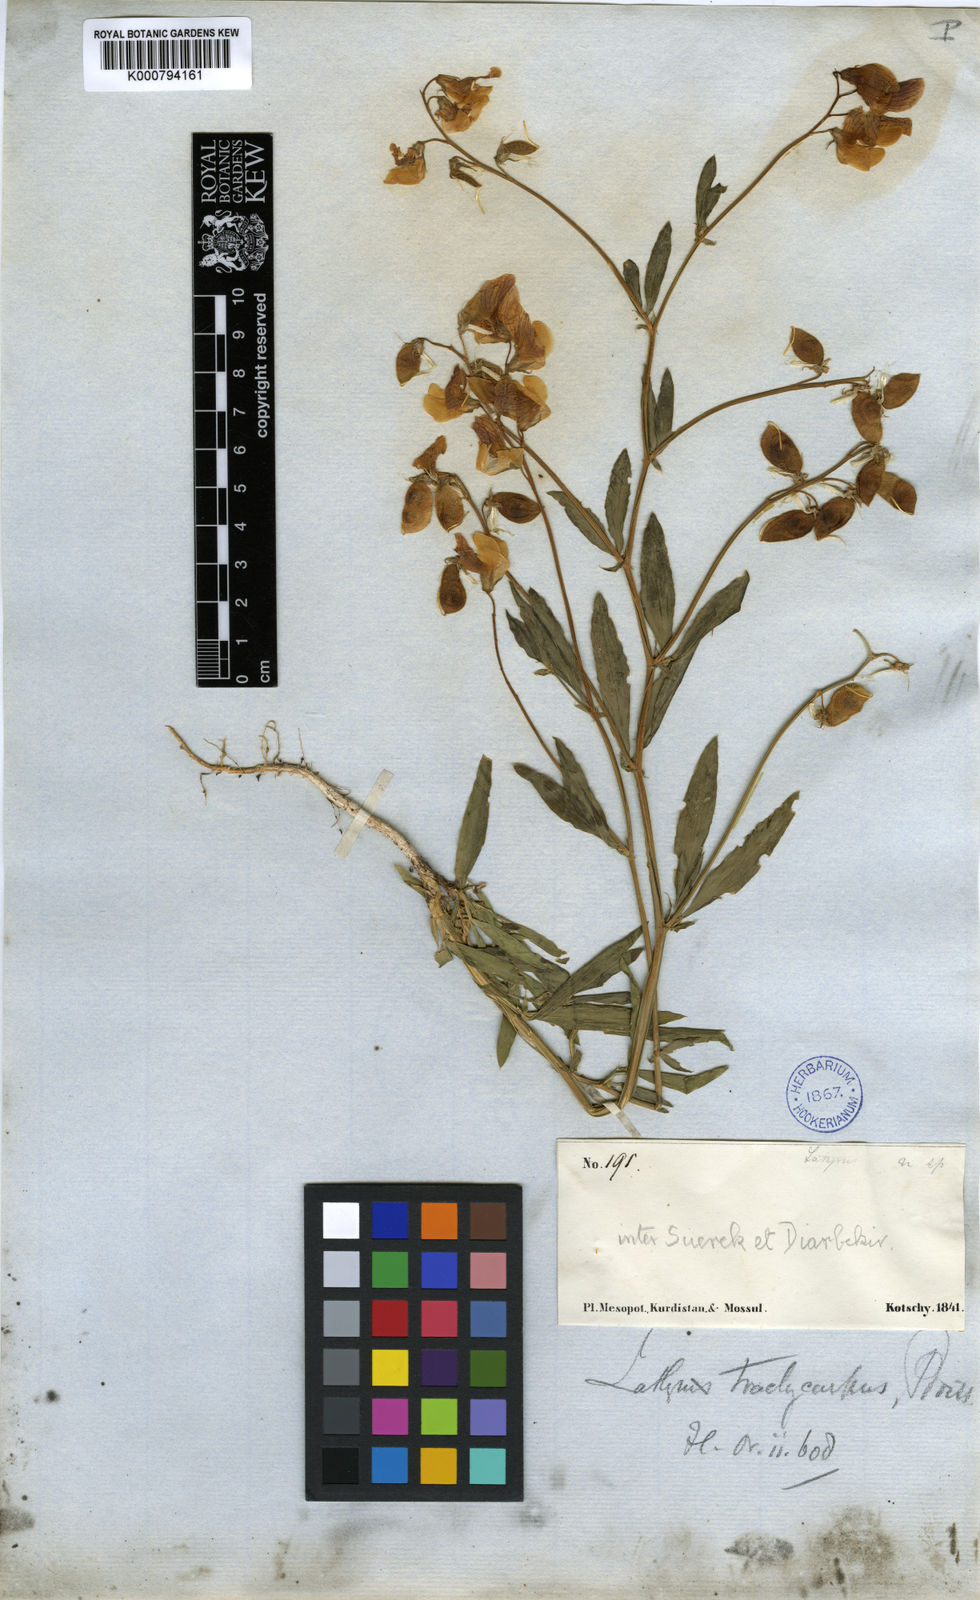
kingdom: Plantae
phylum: Tracheophyta
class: Magnoliopsida
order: Fabales
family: Fabaceae
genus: Lathyrus
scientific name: Lathyrus trachycarpus
